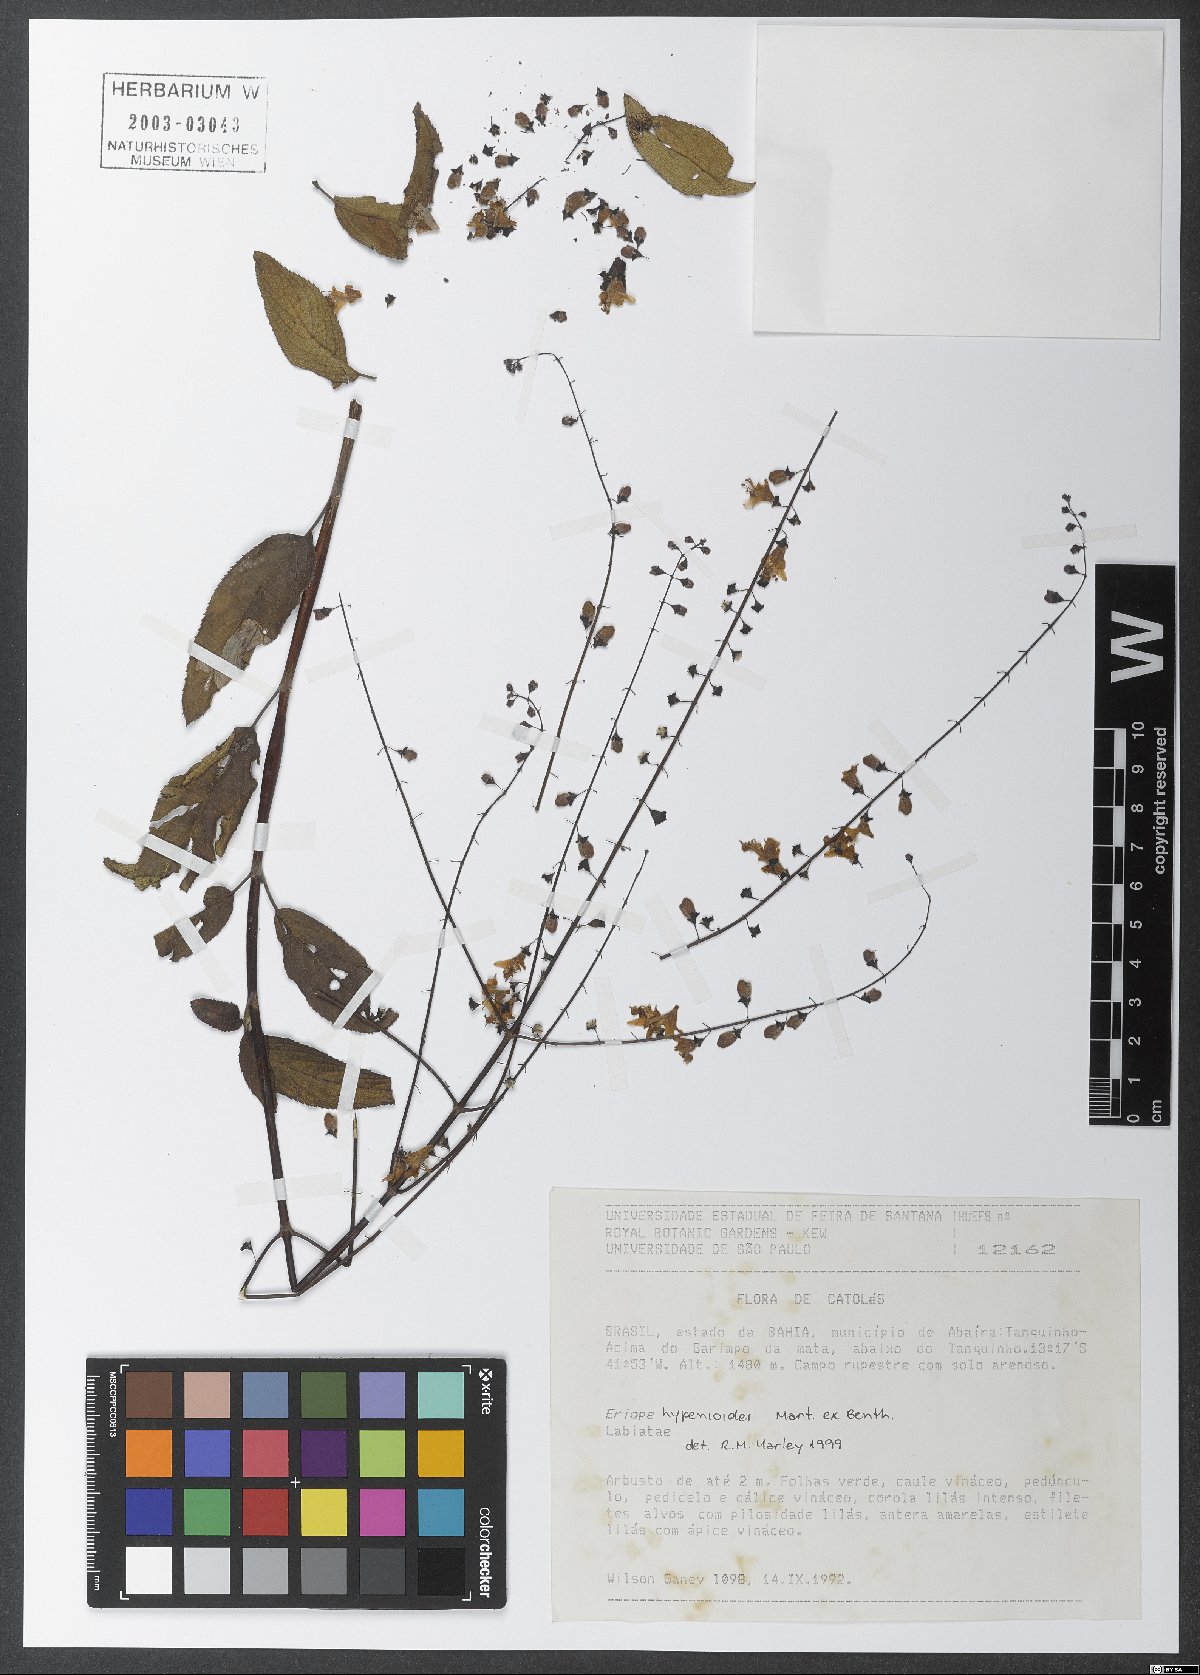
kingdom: Plantae
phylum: Tracheophyta
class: Magnoliopsida
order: Lamiales
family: Lamiaceae
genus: Eriope
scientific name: Eriope hypenioides
